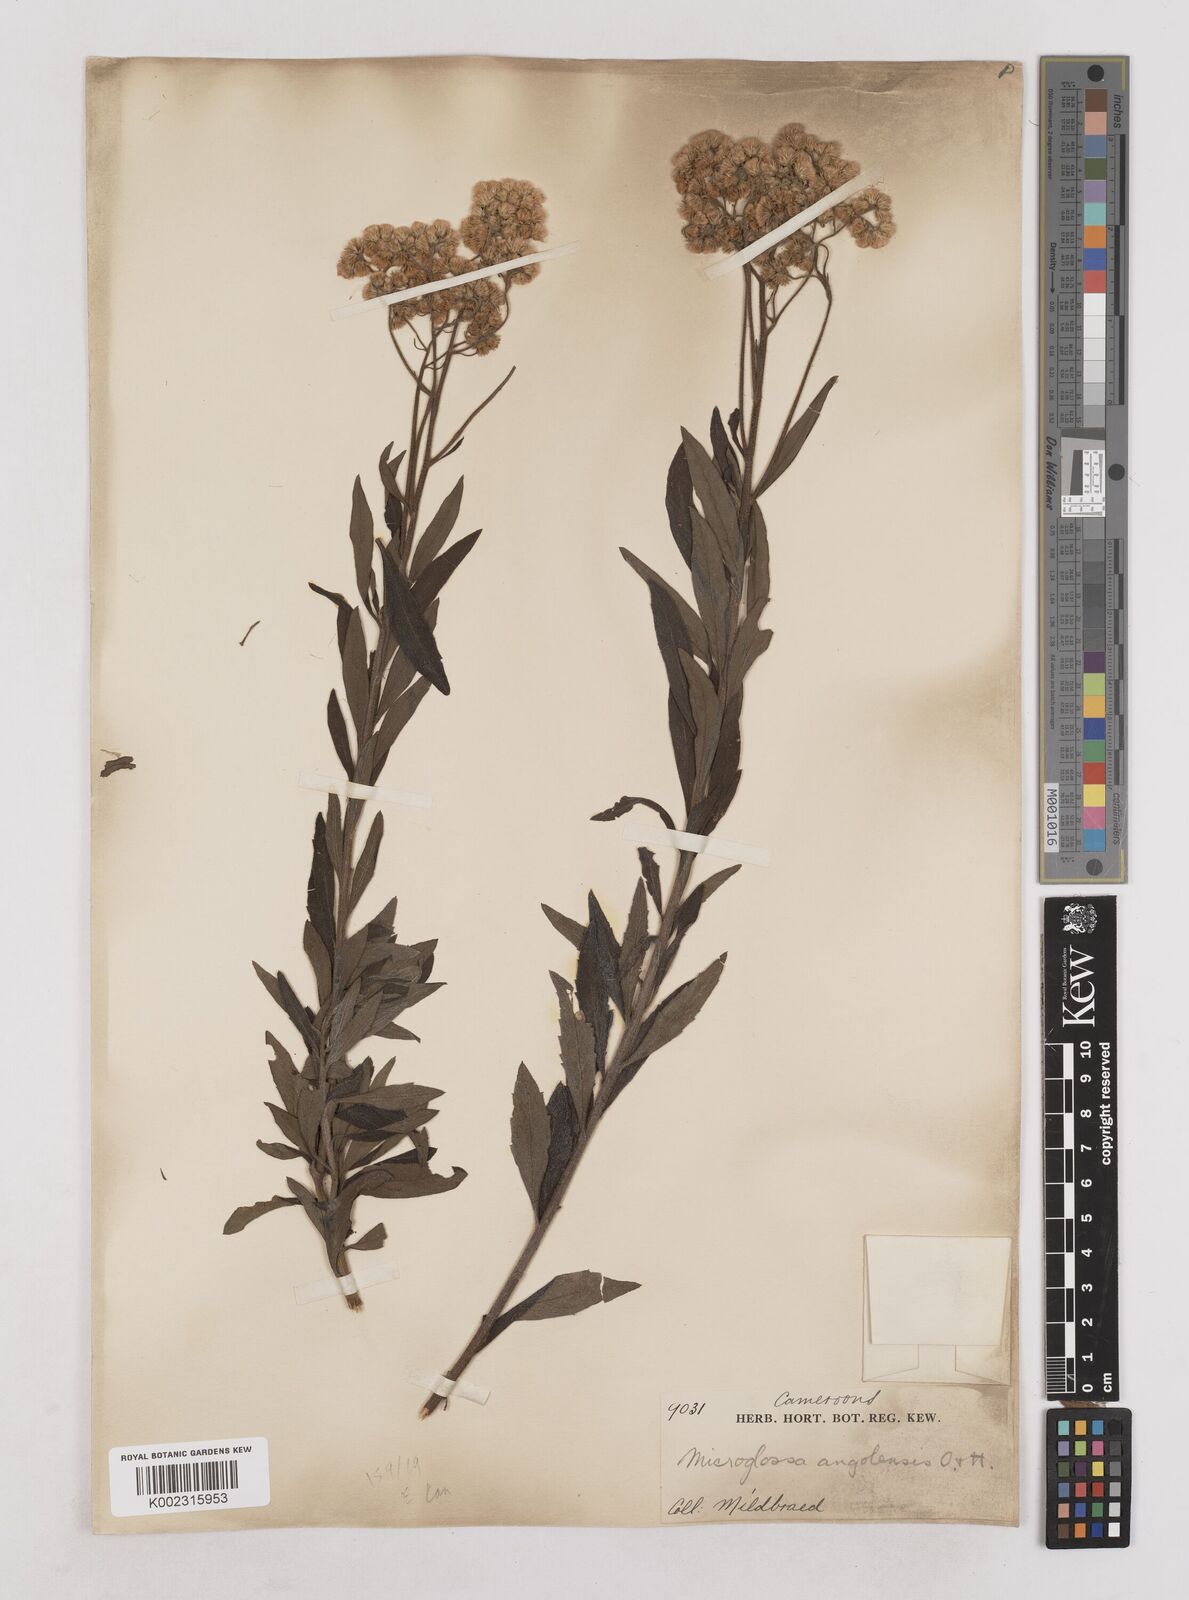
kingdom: Plantae
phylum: Tracheophyta
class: Magnoliopsida
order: Asterales
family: Asteraceae
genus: Microglossa
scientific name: Microglossa pyrrhopappa
